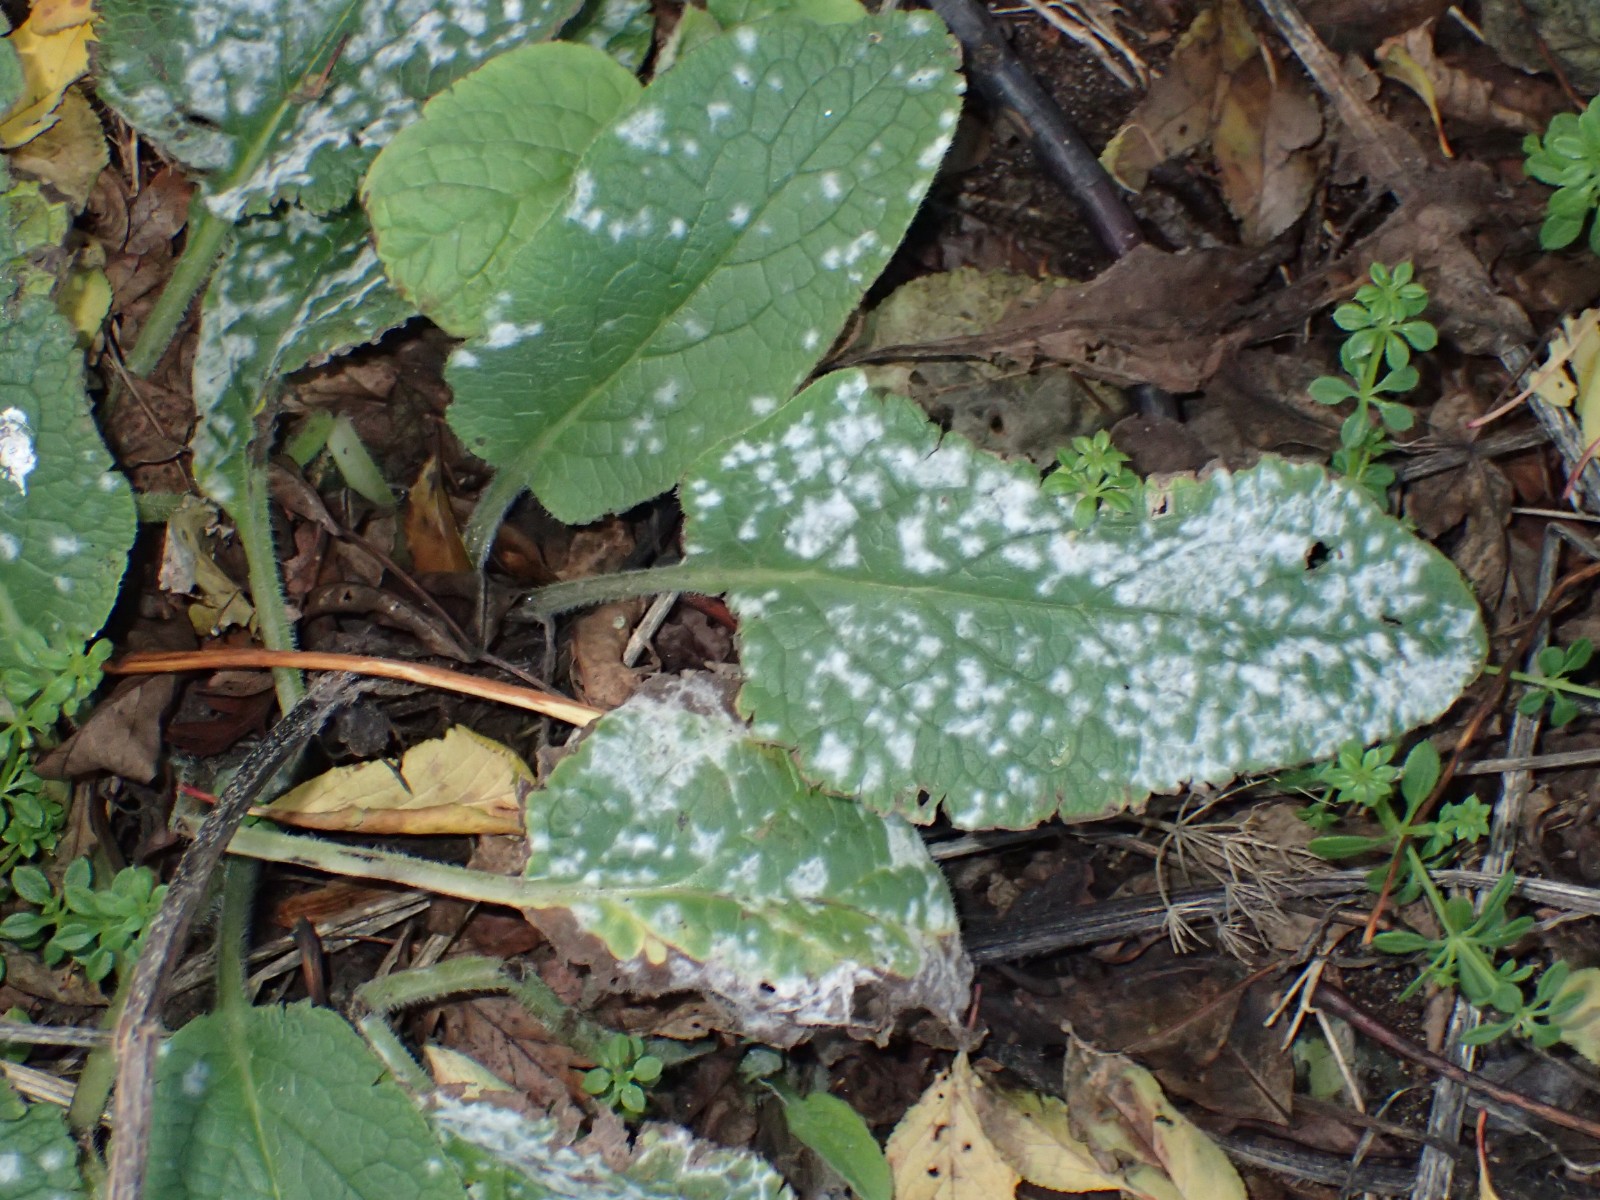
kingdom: Fungi
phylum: Ascomycota
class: Leotiomycetes
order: Helotiales
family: Erysiphaceae
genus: Golovinomyces
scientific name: Golovinomyces asperifoliorum
